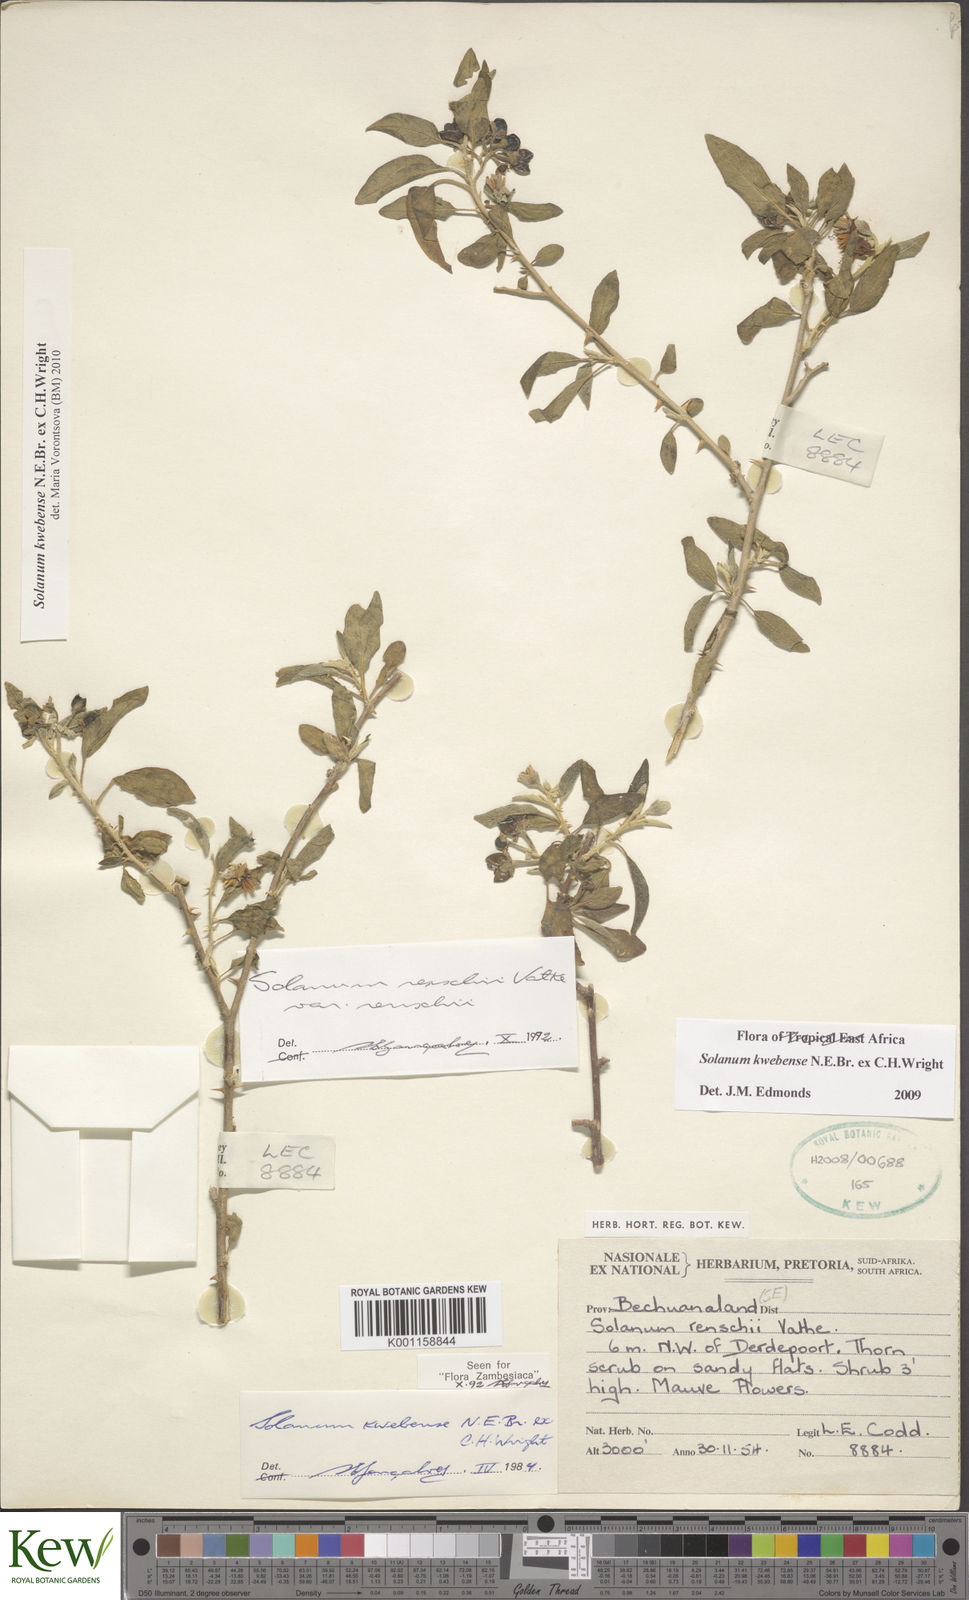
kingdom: Plantae
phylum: Tracheophyta
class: Magnoliopsida
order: Solanales
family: Solanaceae
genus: Solanum
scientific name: Solanum tettense
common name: Mozambique bitter apple
